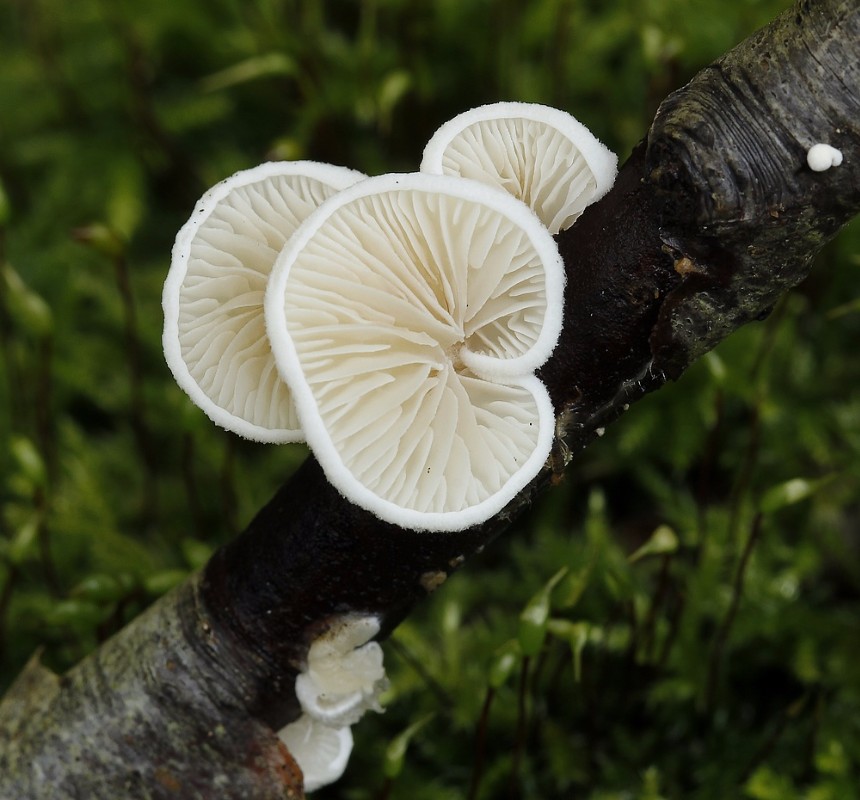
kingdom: Fungi
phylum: Basidiomycota
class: Agaricomycetes
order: Agaricales
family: Crepidotaceae
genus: Crepidotus
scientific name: Crepidotus
